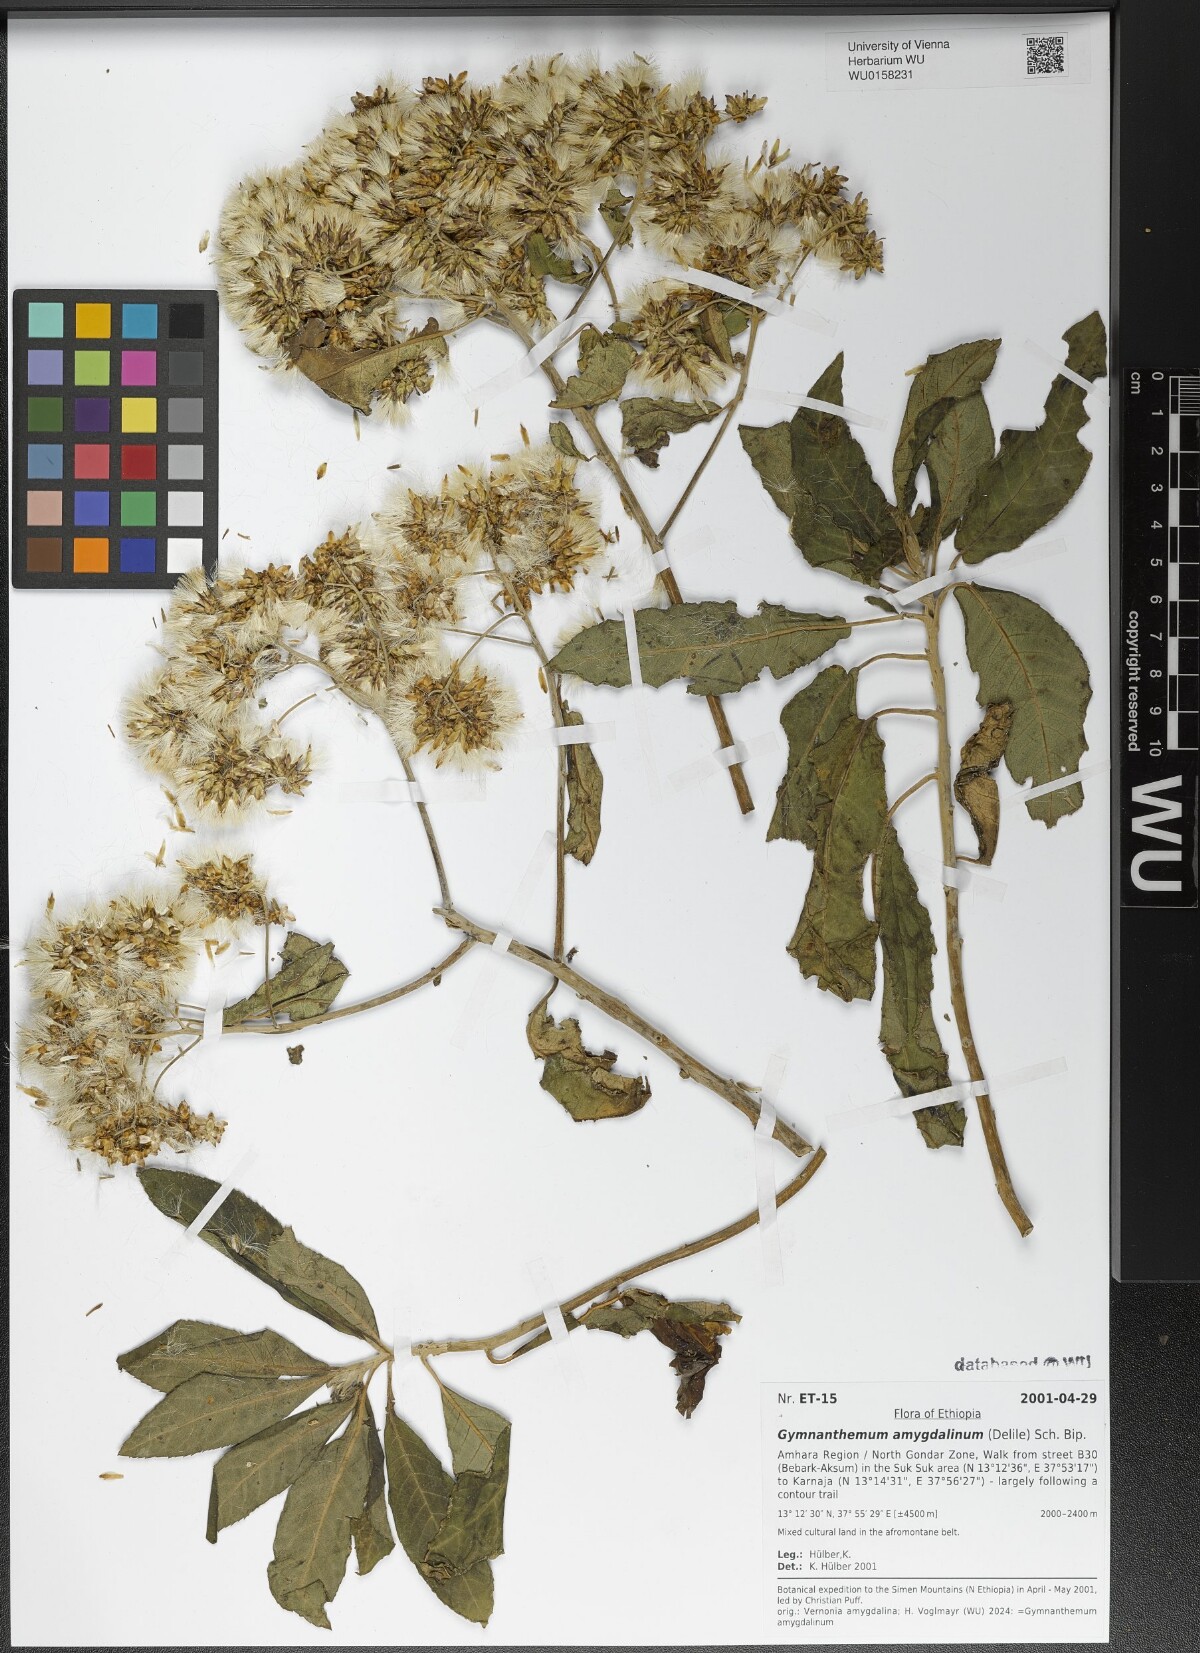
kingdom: Plantae
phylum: Tracheophyta
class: Magnoliopsida
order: Asterales
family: Asteraceae
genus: Gymnanthemum
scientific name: Gymnanthemum amygdalinum
